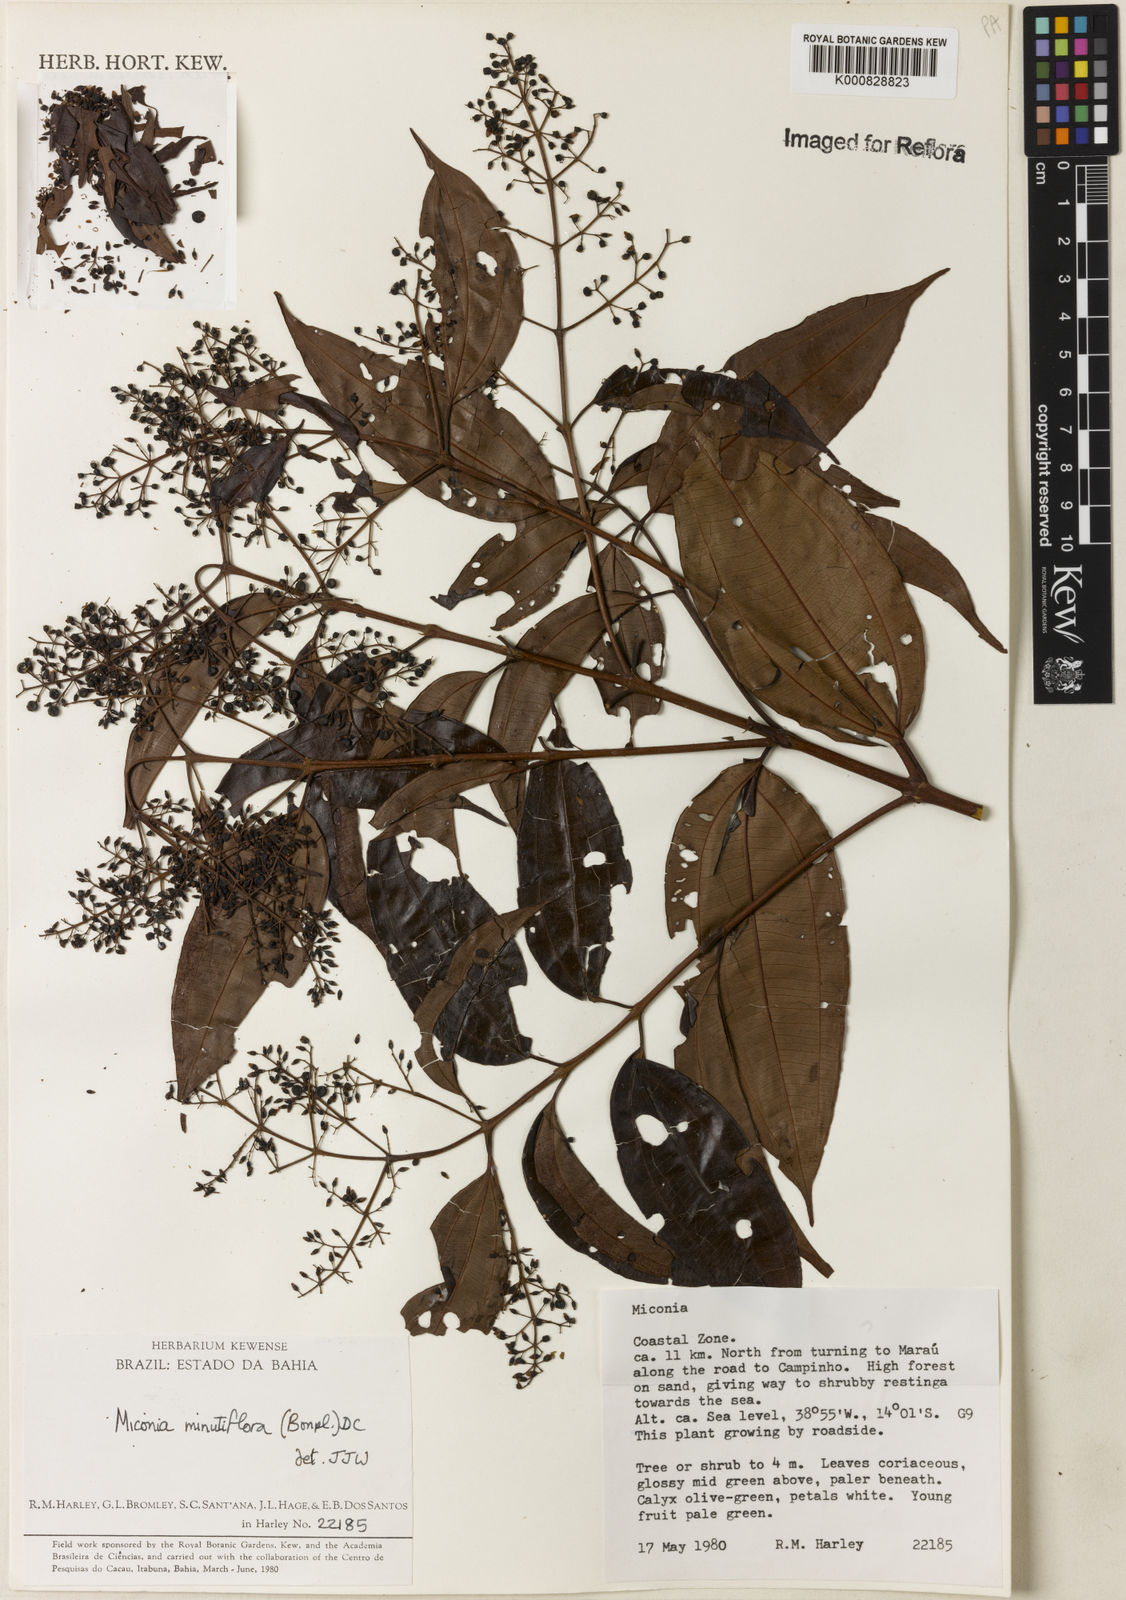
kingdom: Plantae
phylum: Tracheophyta
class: Magnoliopsida
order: Myrtales
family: Melastomataceae
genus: Miconia
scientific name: Miconia minutiflora
